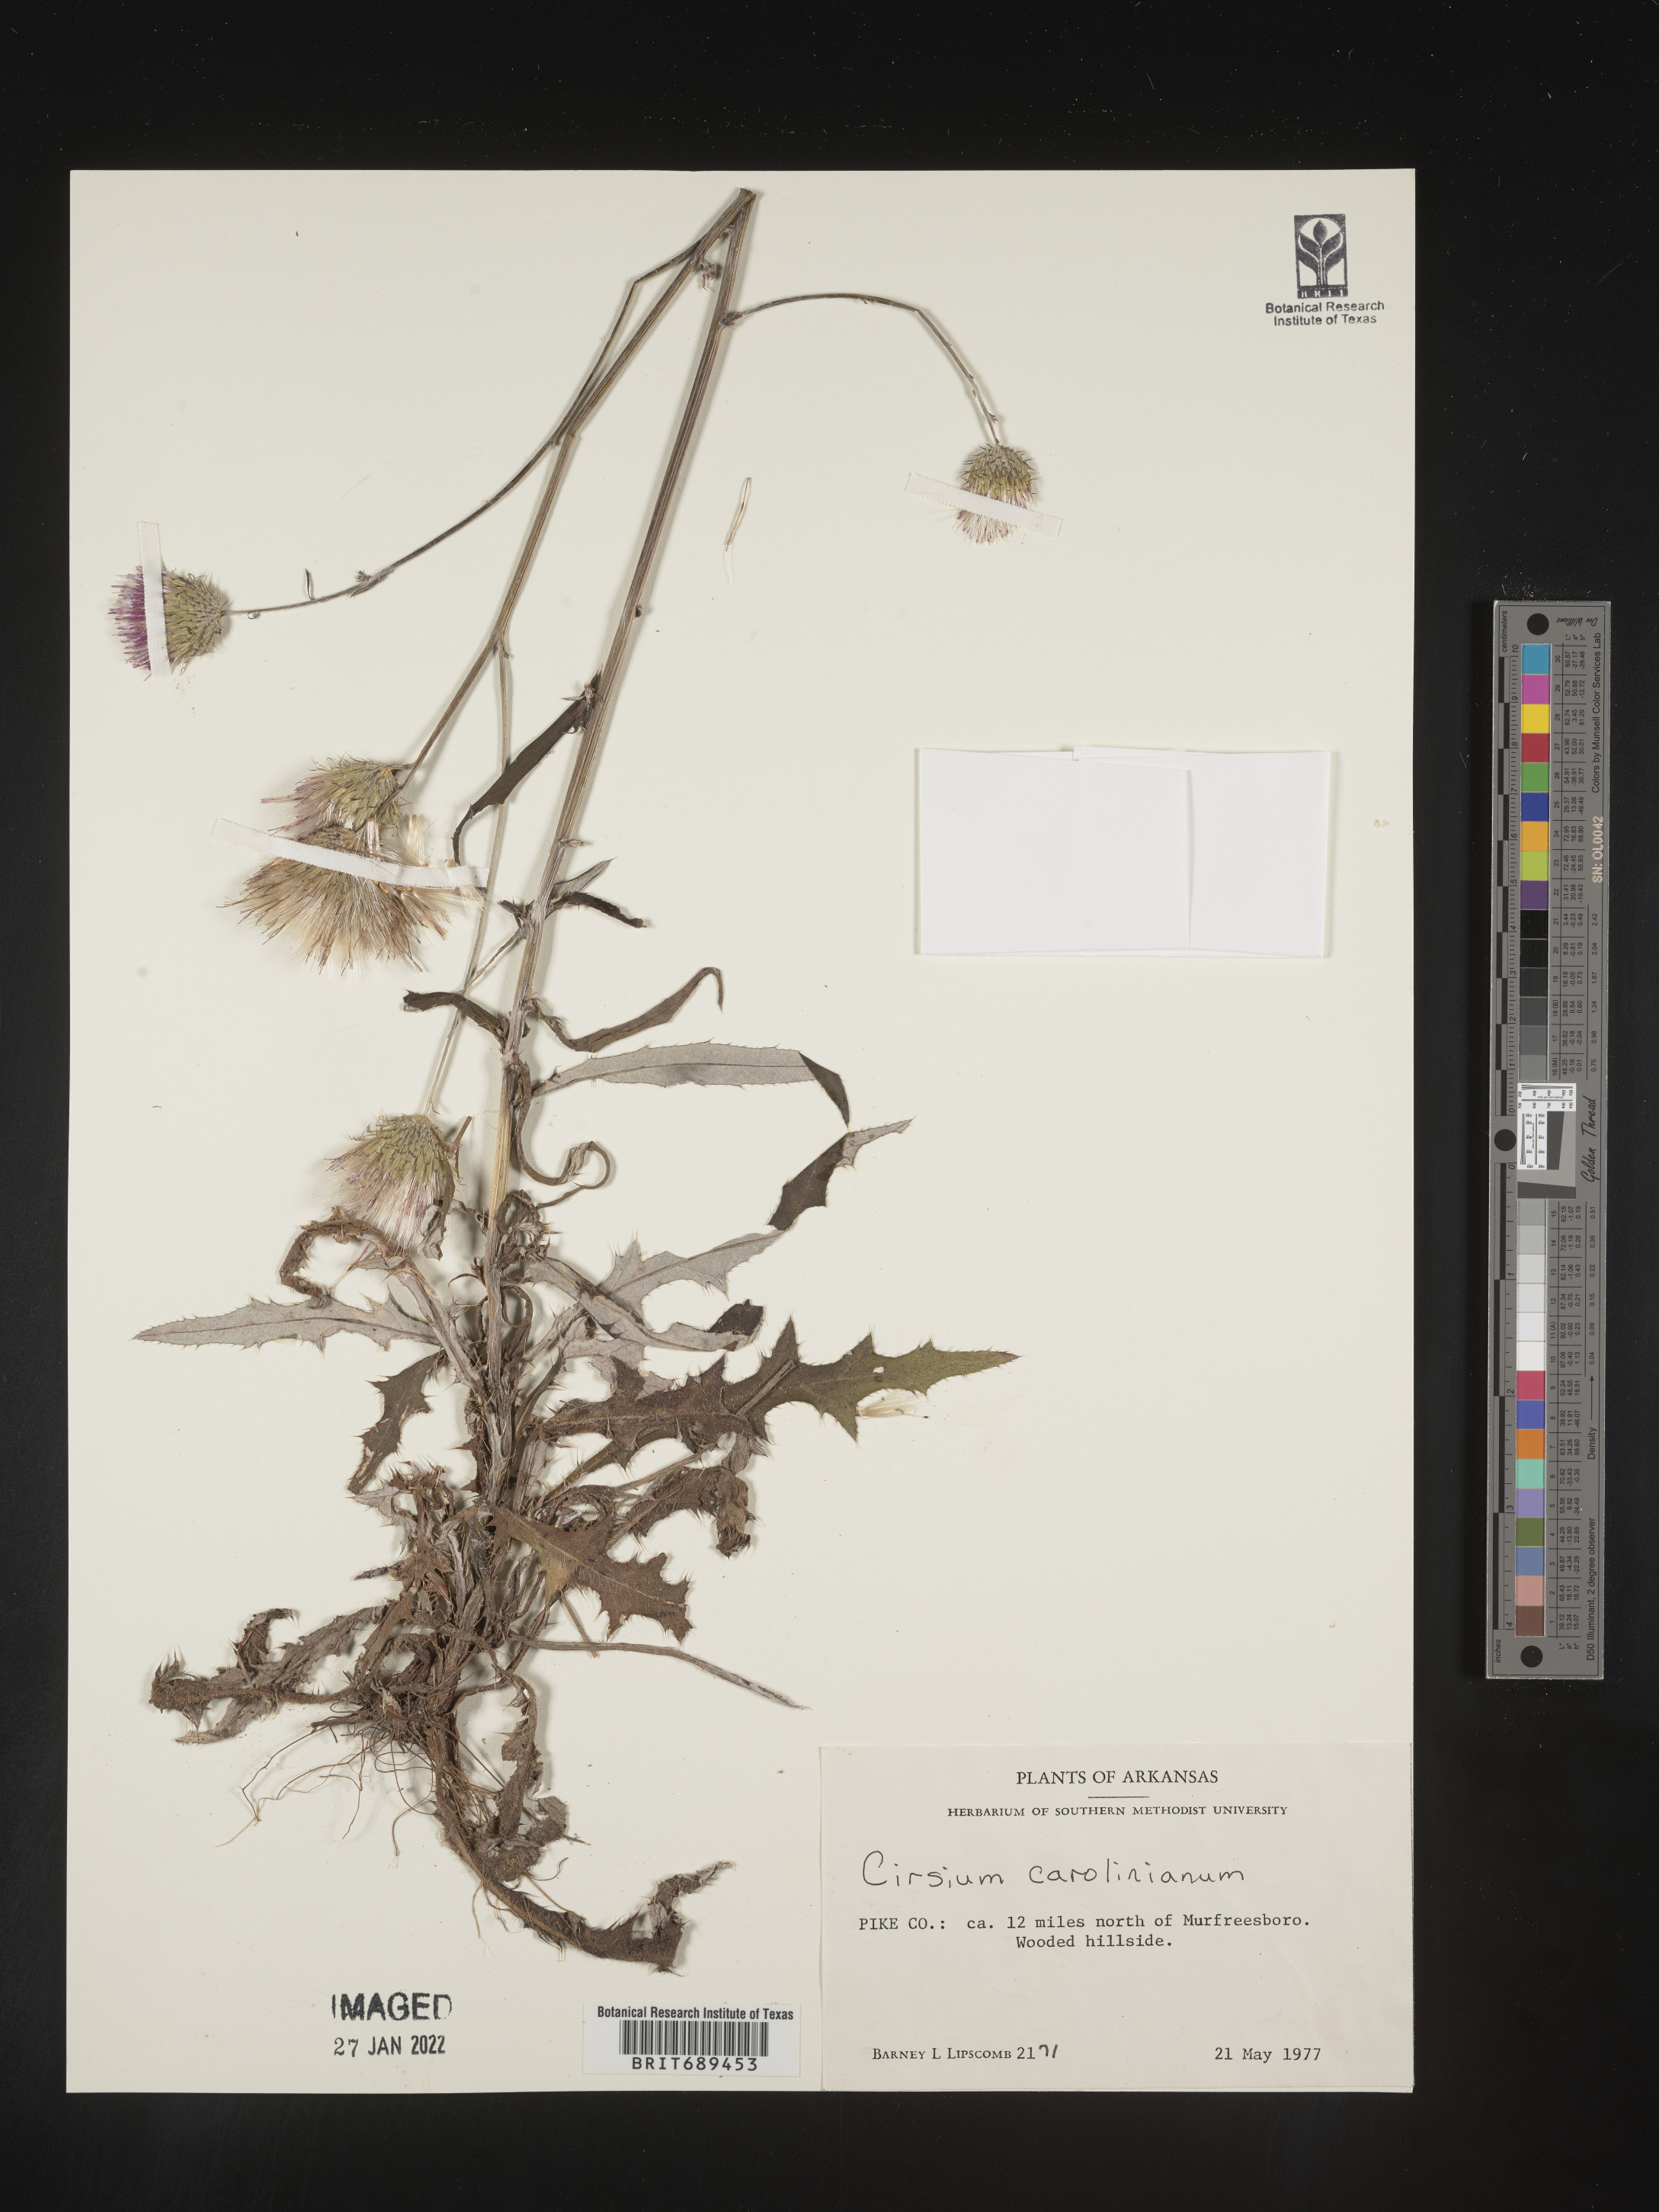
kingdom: Plantae
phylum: Tracheophyta
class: Magnoliopsida
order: Asterales
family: Asteraceae
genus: Cirsium
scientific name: Cirsium carolinianum
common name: Carolina thistle
